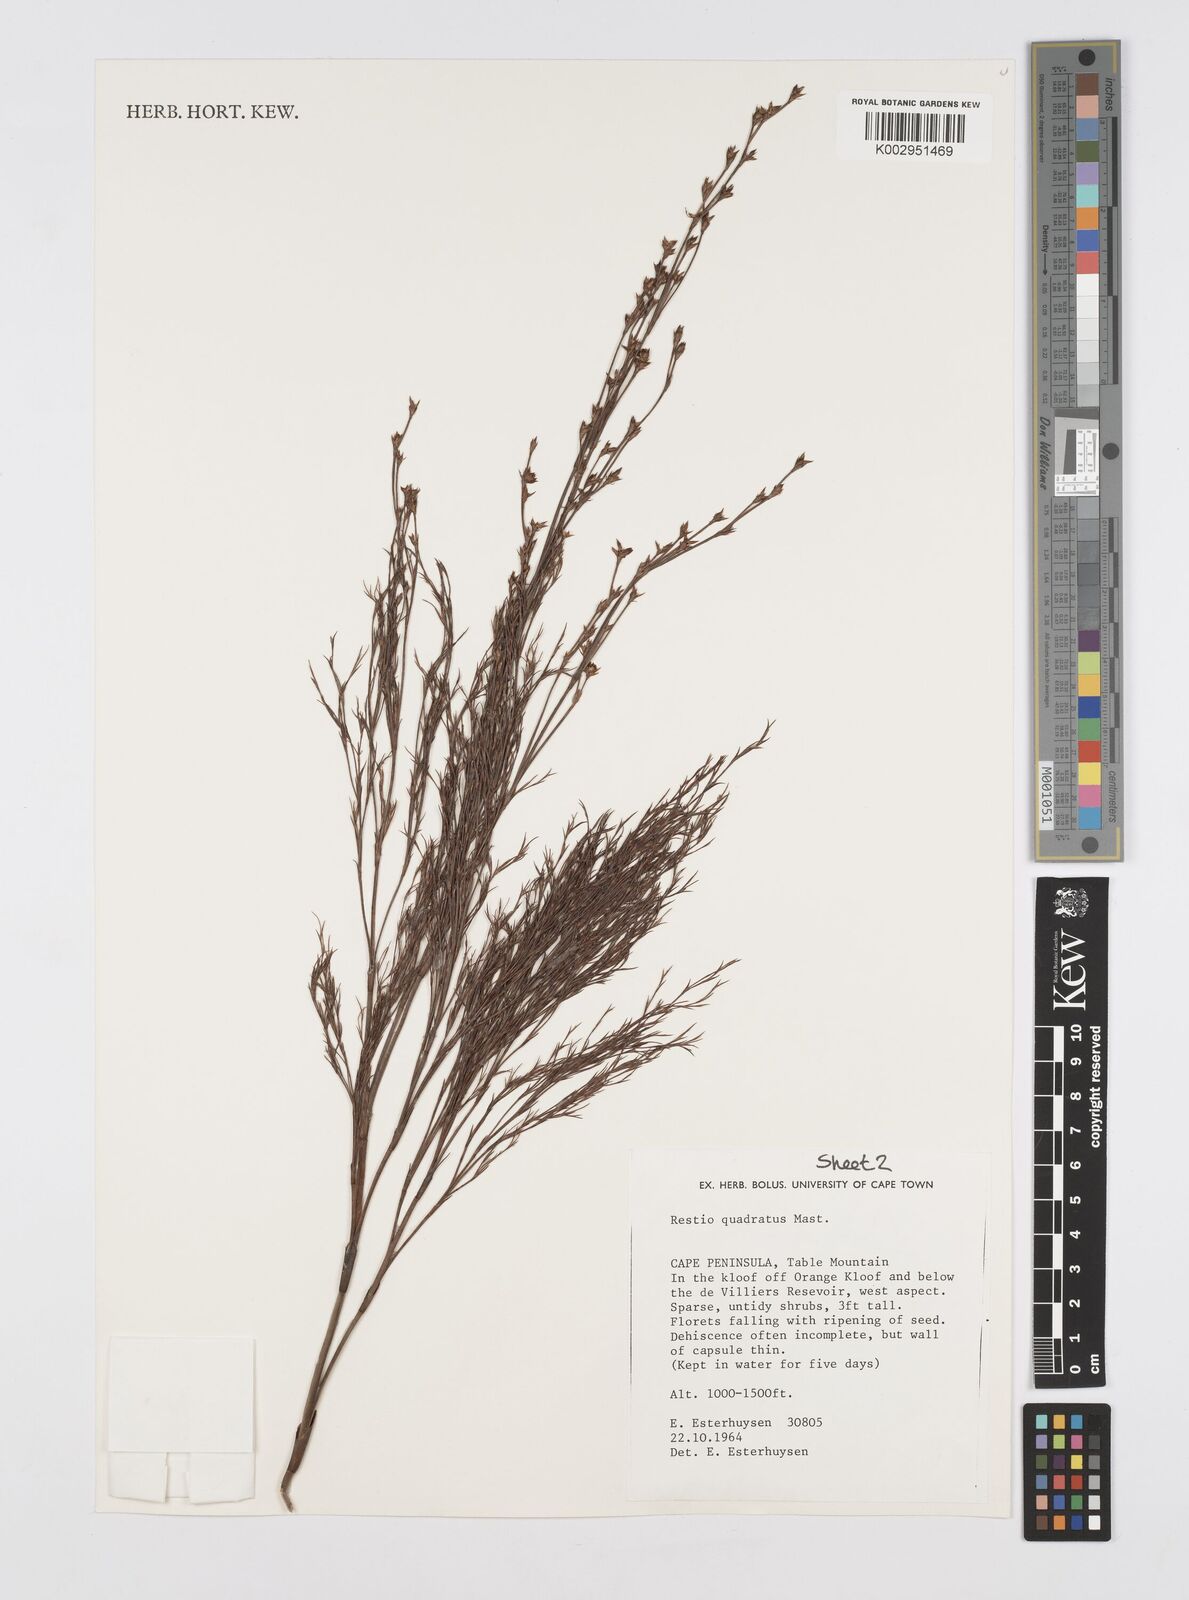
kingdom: Plantae
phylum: Tracheophyta
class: Liliopsida
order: Poales
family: Restionaceae
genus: Restio
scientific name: Restio quadratus
